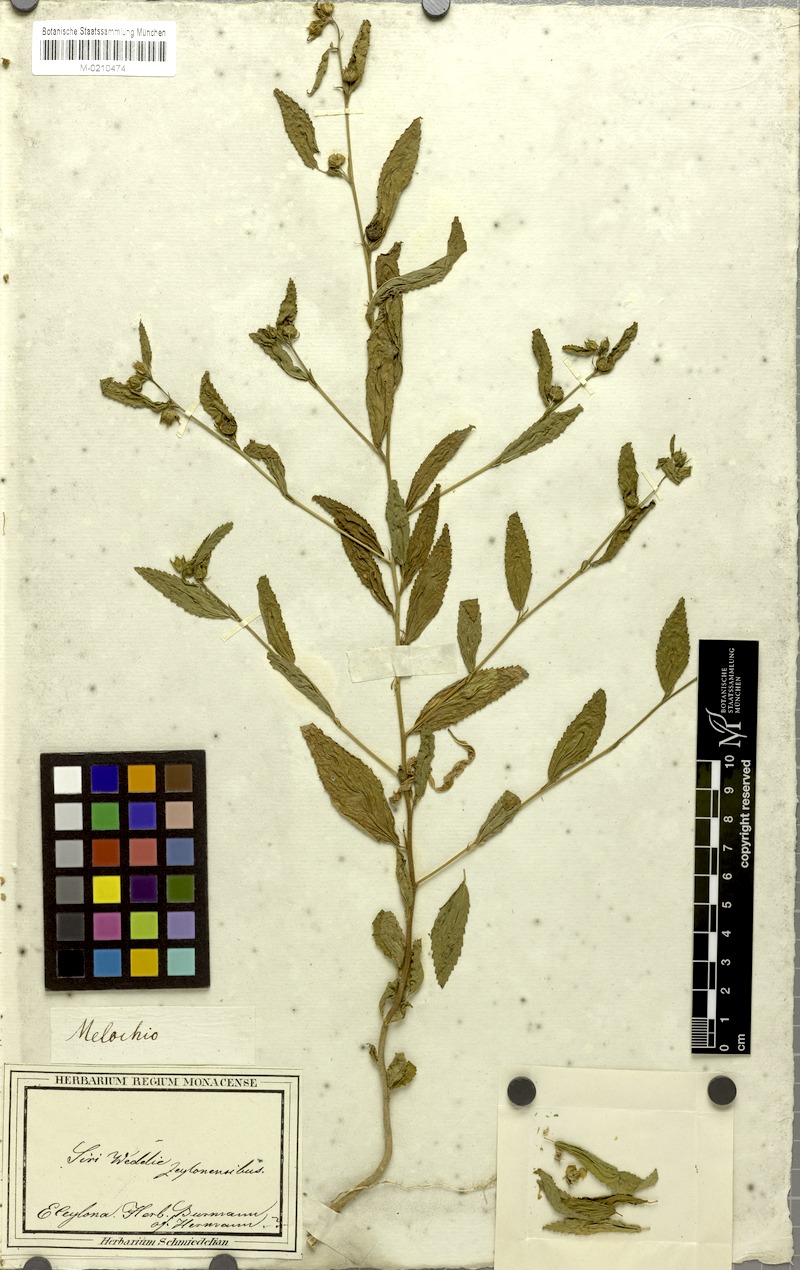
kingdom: Plantae
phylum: Tracheophyta
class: Magnoliopsida
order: Malvales
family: Malvaceae
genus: Sida
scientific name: Sida acuta
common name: Common wireweed
